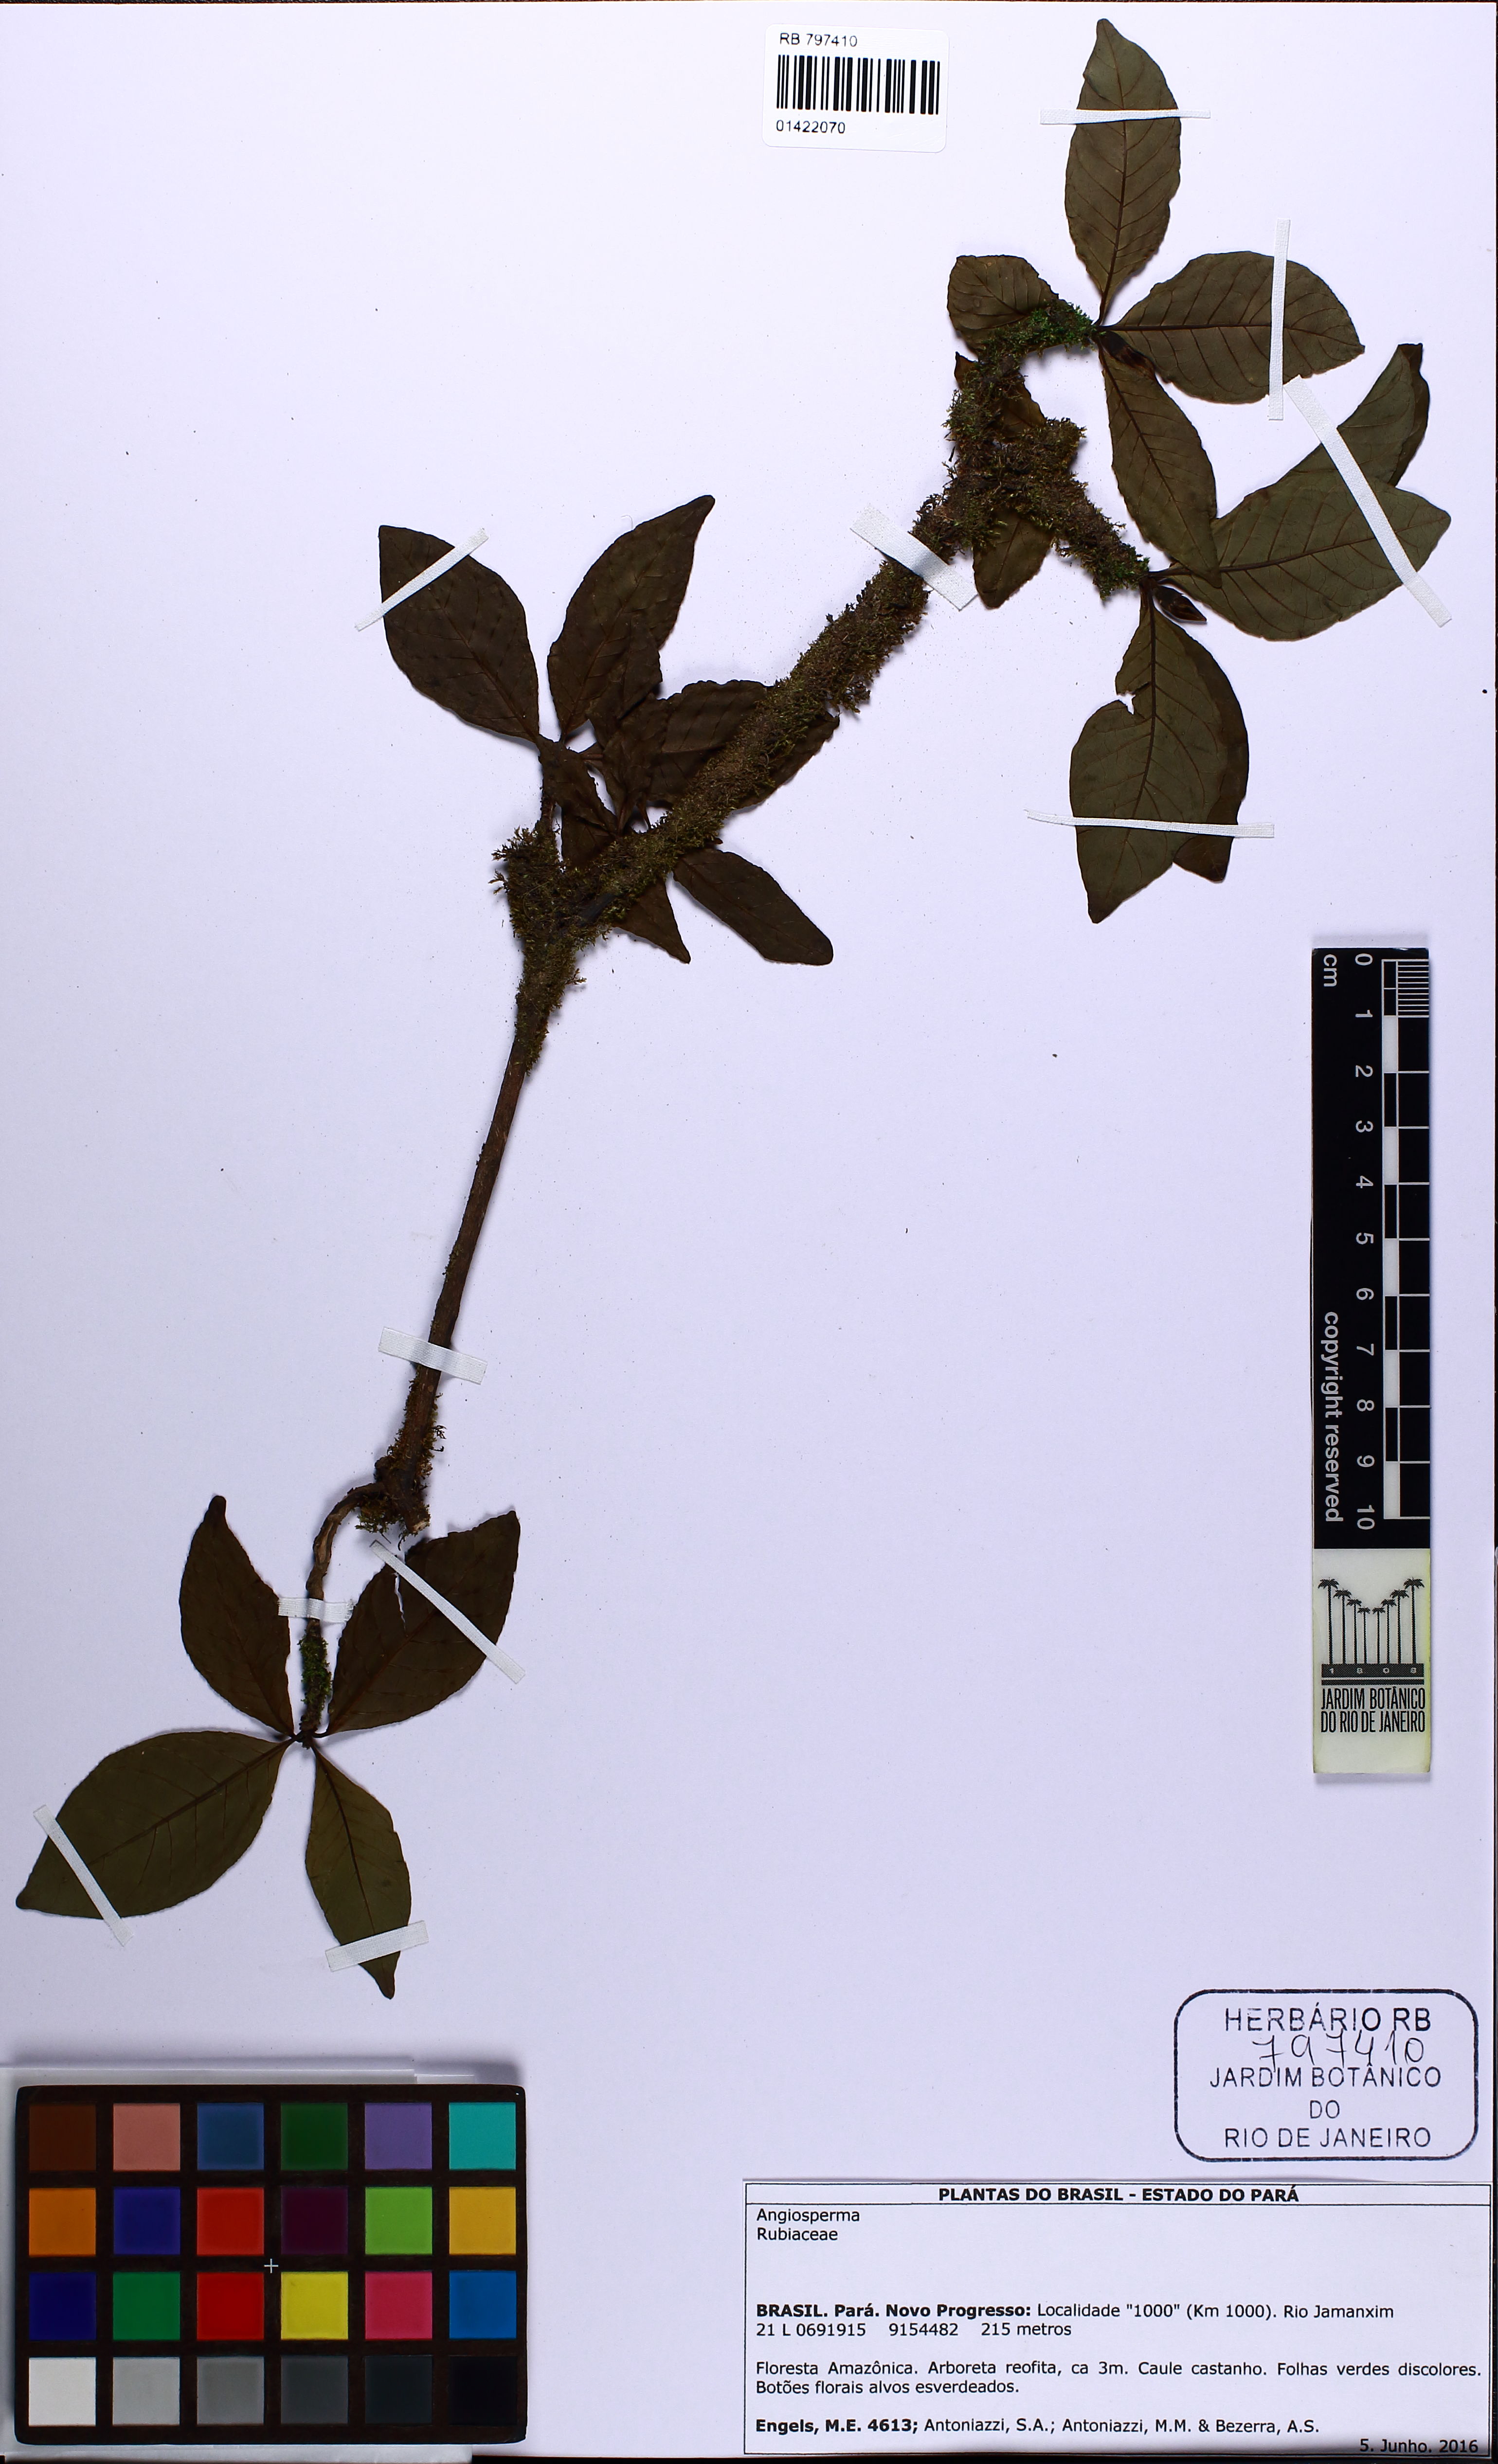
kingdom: Plantae
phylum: Tracheophyta
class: Magnoliopsida
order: Gentianales
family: Rubiaceae
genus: Sphinctanthus
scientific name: Sphinctanthus
